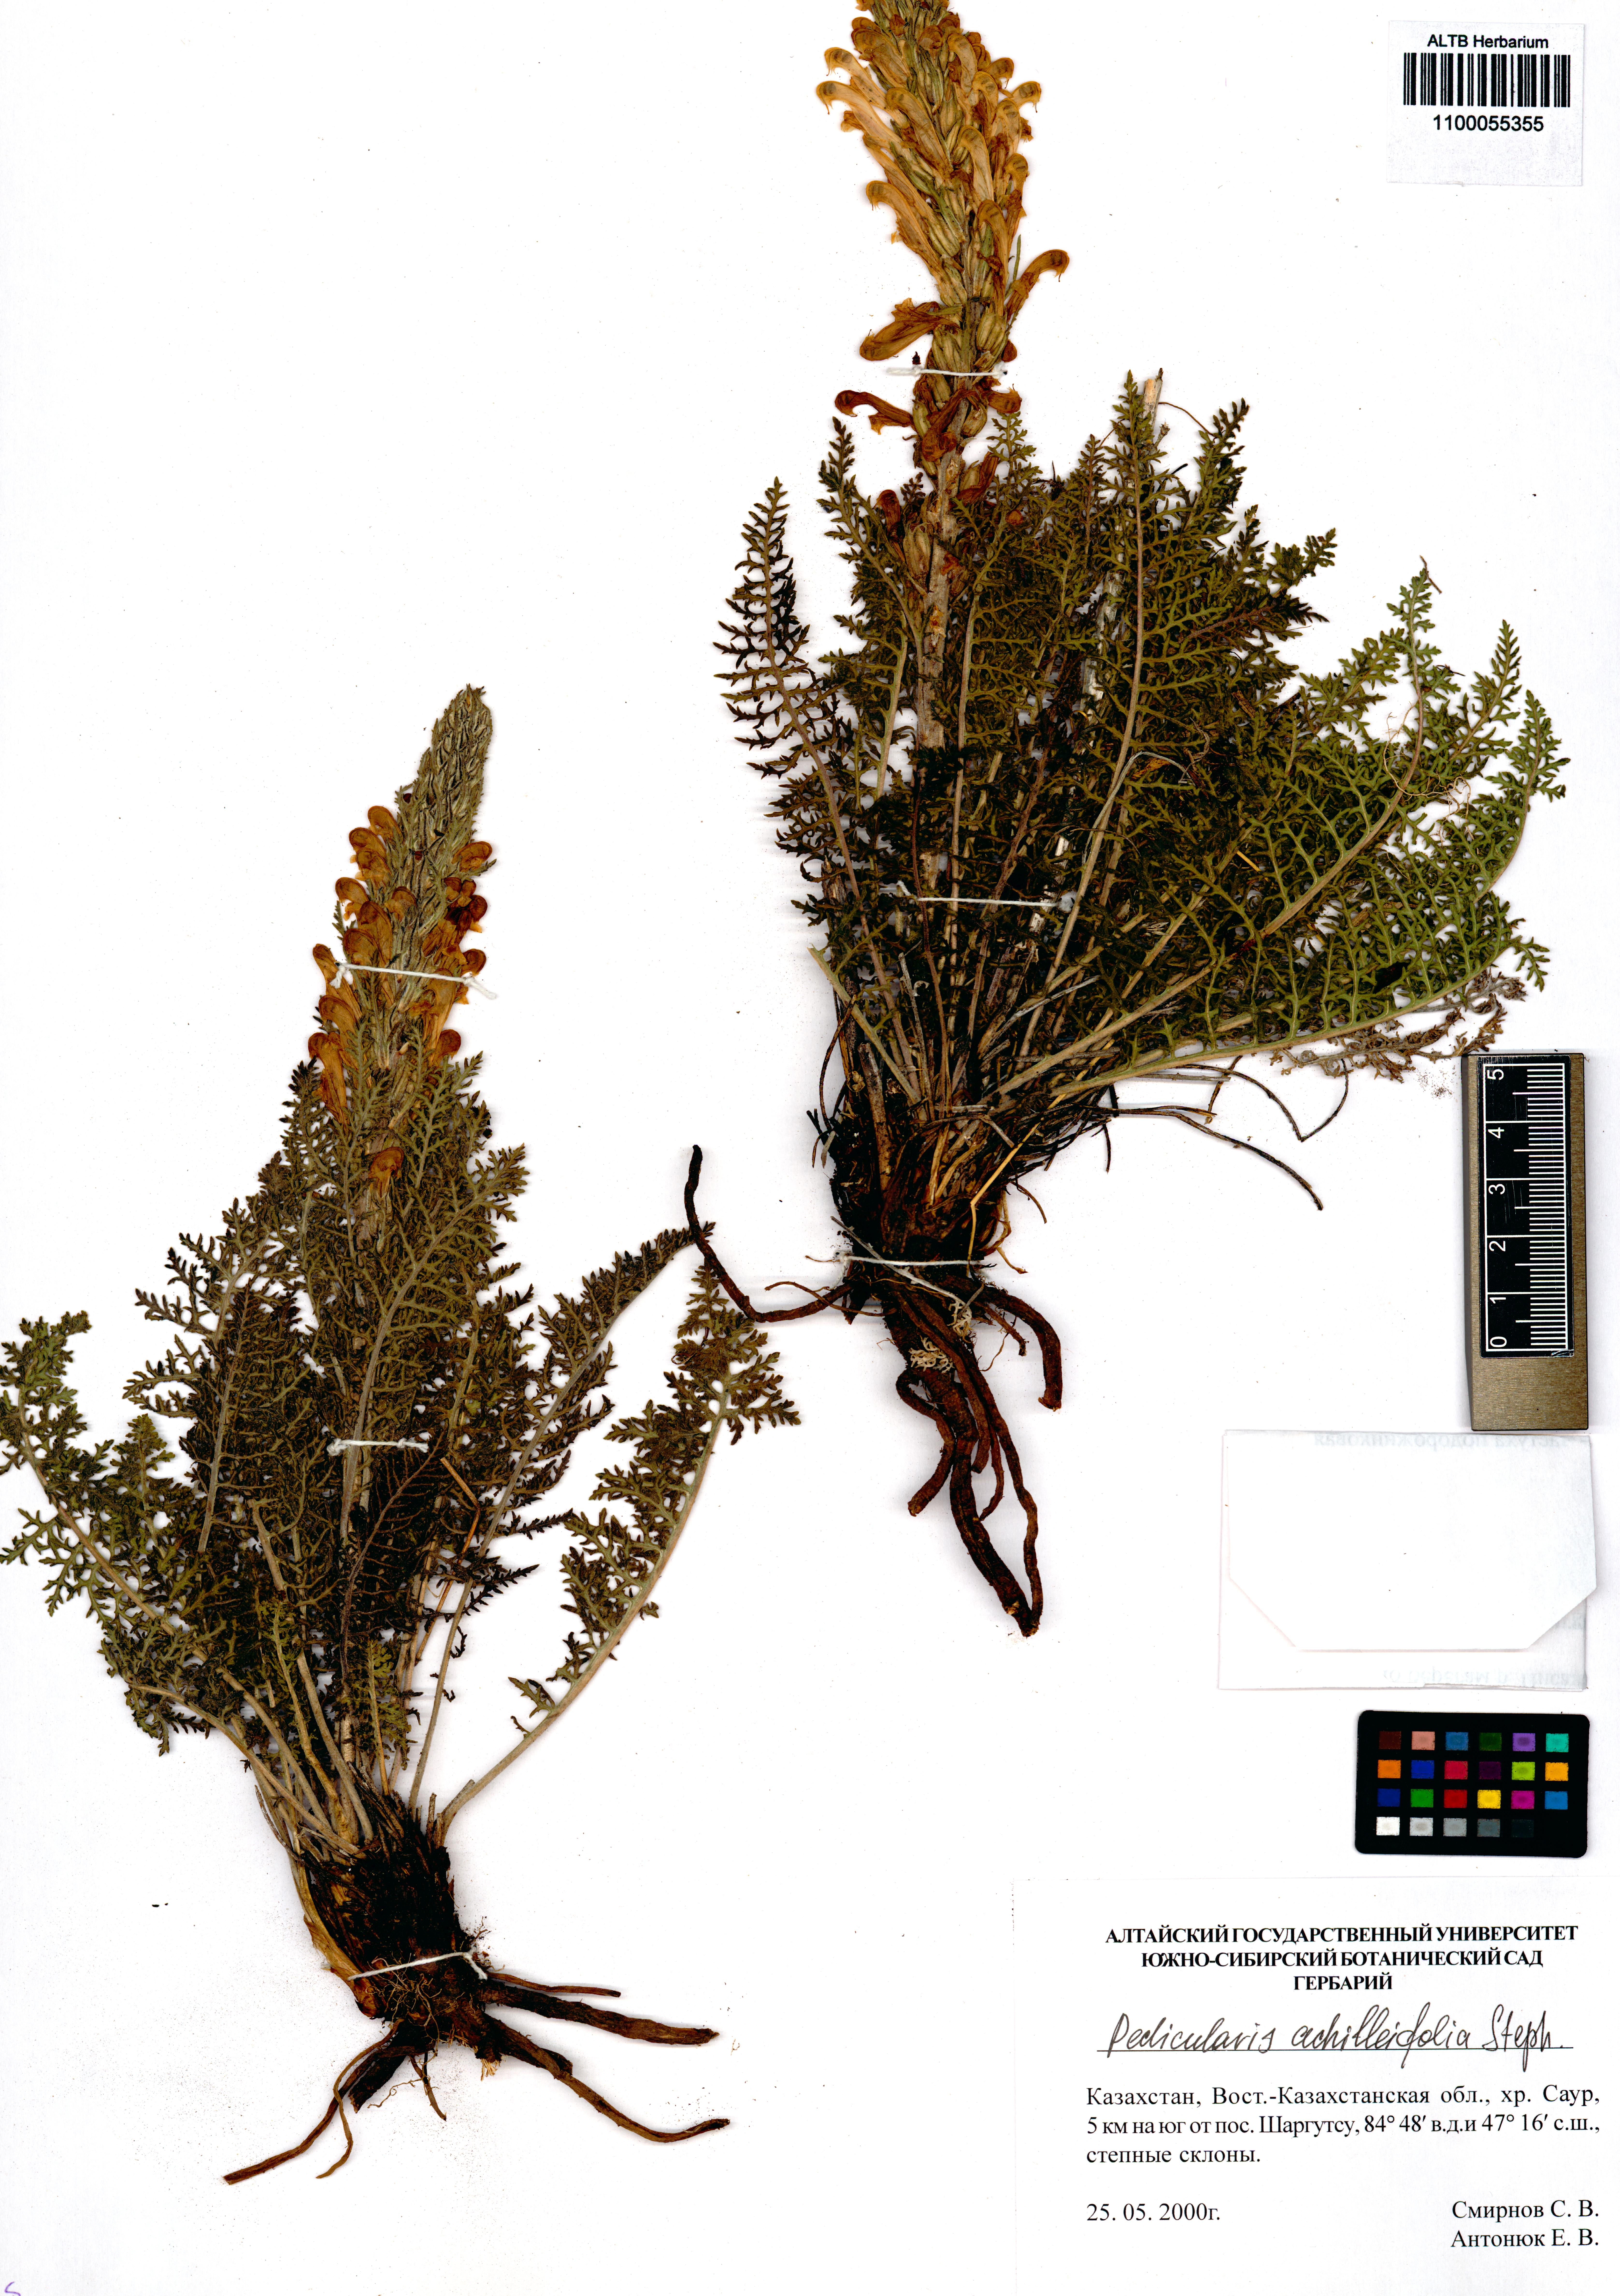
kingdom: Plantae
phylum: Tracheophyta
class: Magnoliopsida
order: Lamiales
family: Orobanchaceae
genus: Pedicularis
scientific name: Pedicularis achilleifolia
